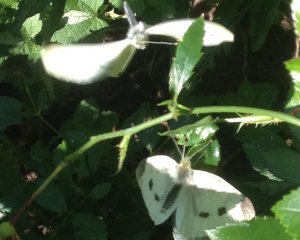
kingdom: Animalia
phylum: Arthropoda
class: Insecta
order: Lepidoptera
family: Pieridae
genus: Pieris
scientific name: Pieris rapae
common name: Cabbage White
